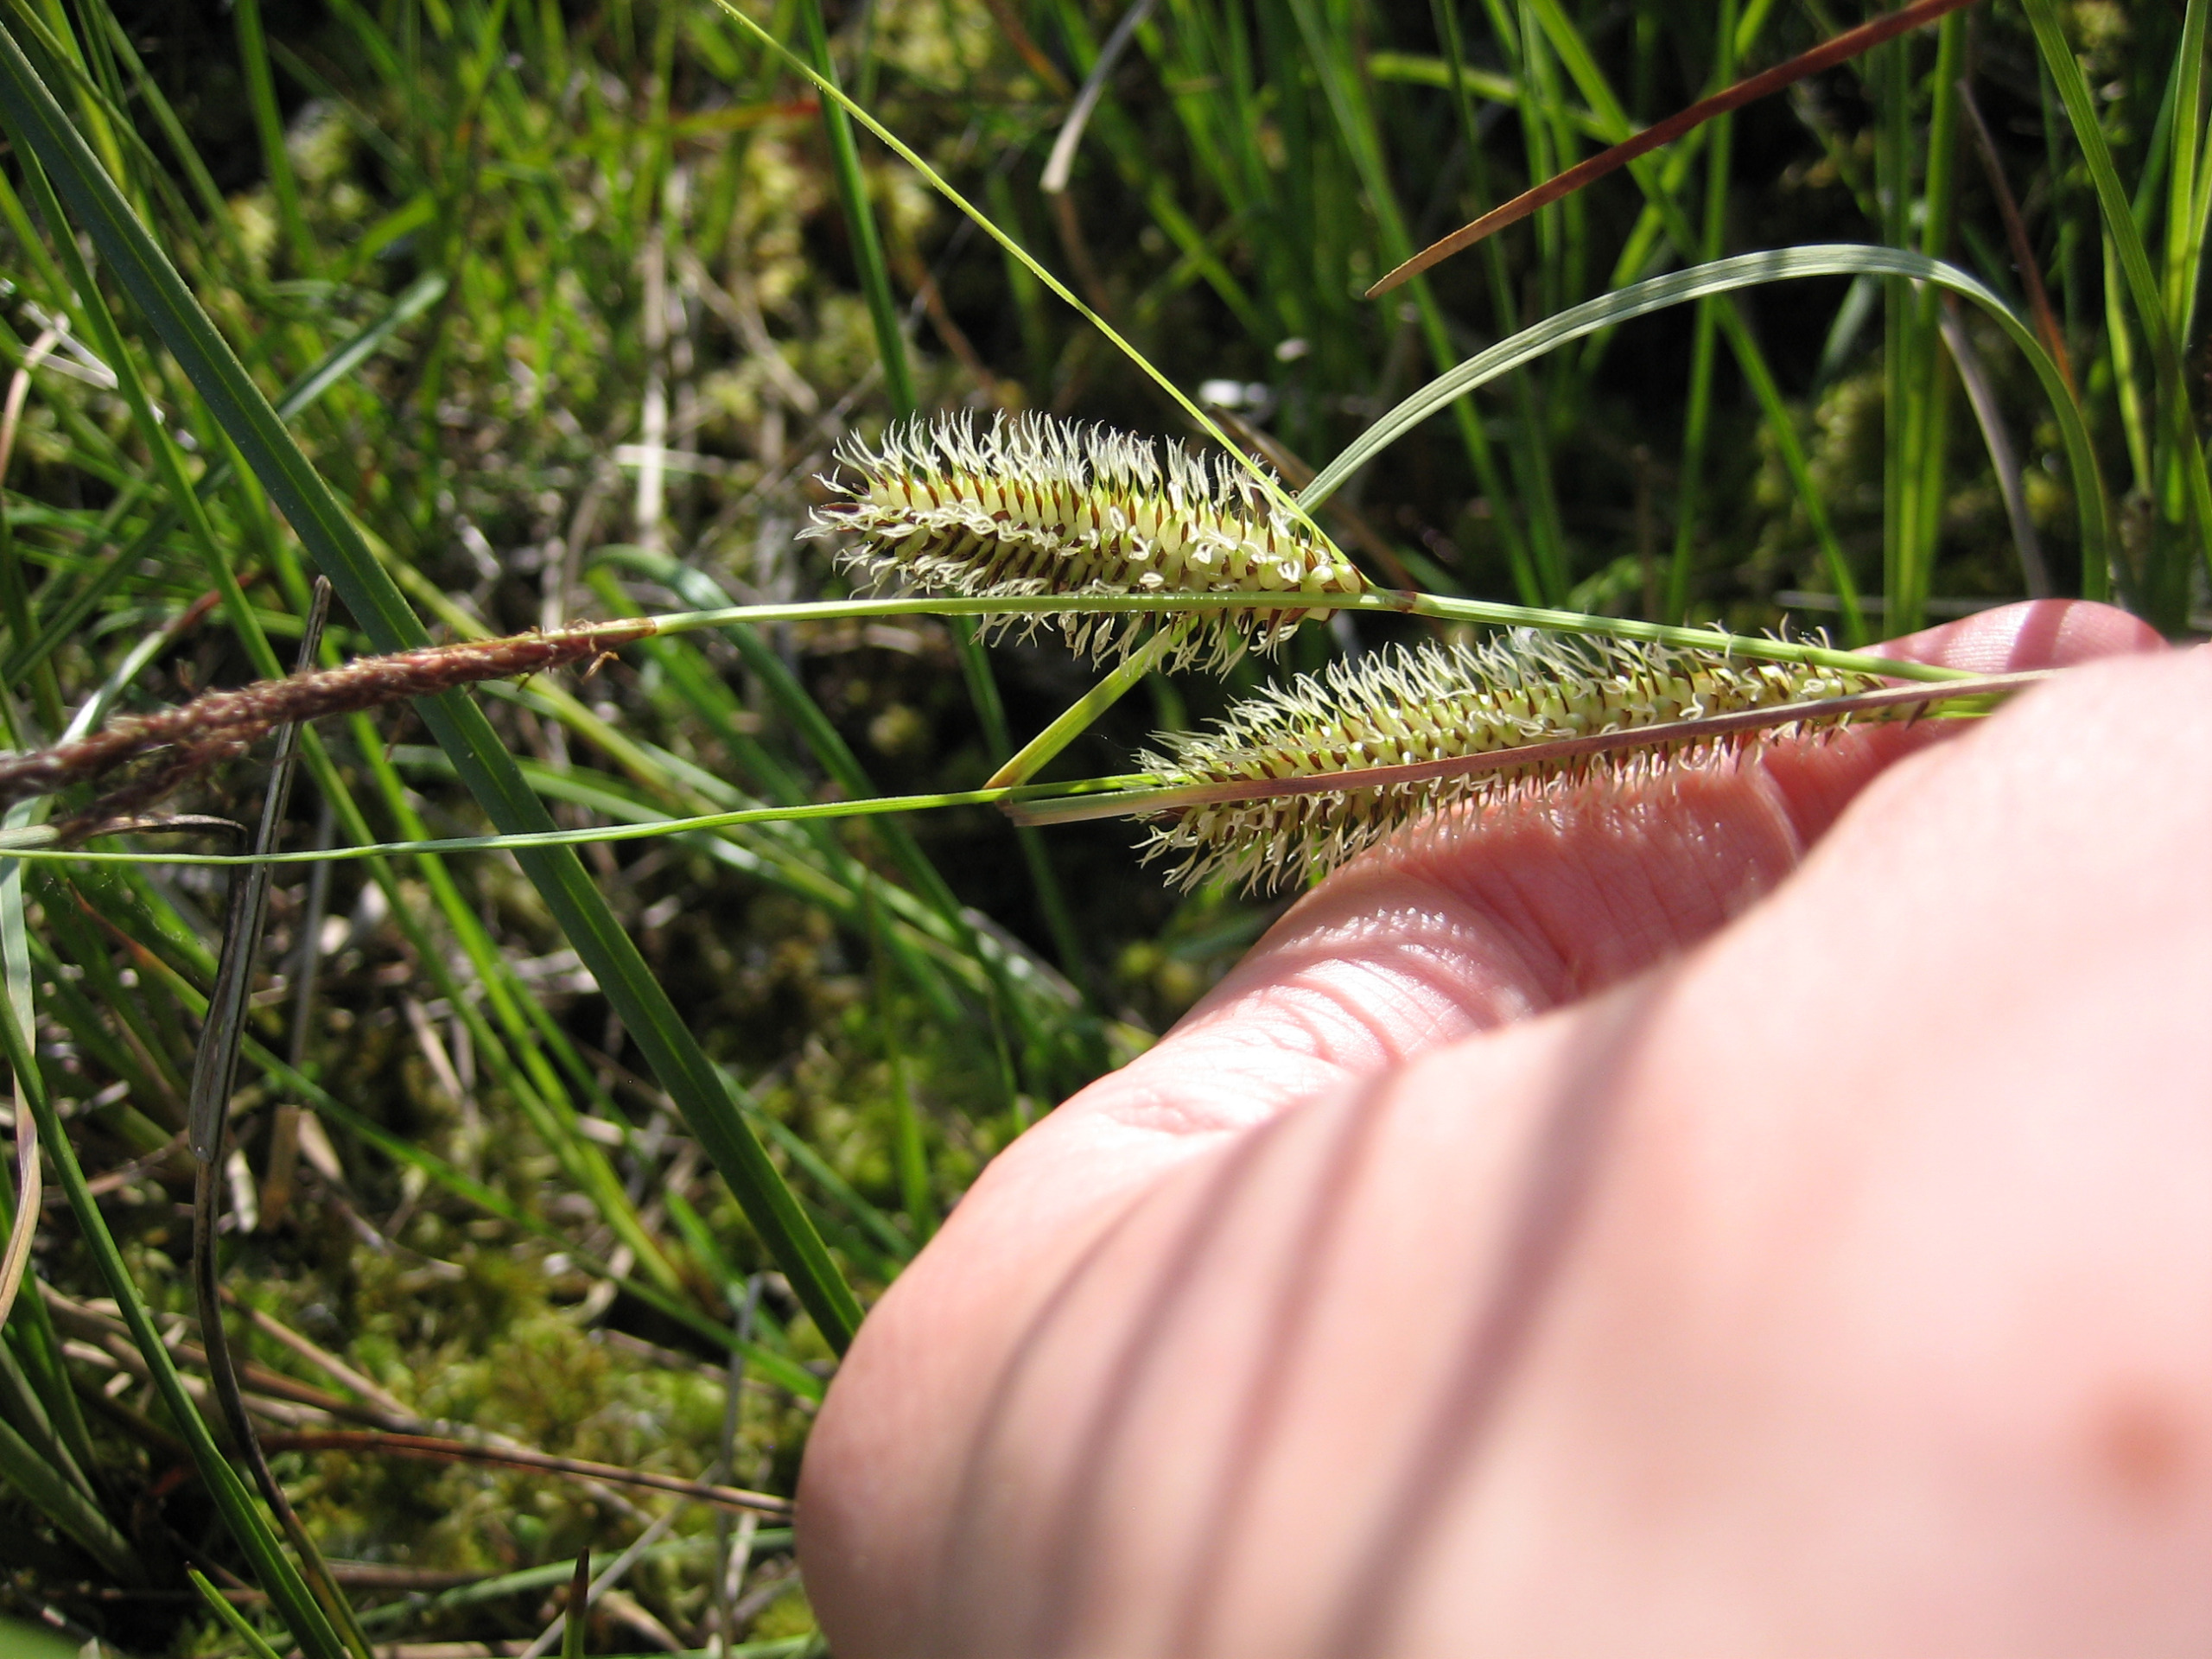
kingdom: Plantae
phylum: Tracheophyta
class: Liliopsida
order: Poales
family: Cyperaceae
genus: Carex
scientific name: Carex rostrata
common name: Næb-star
